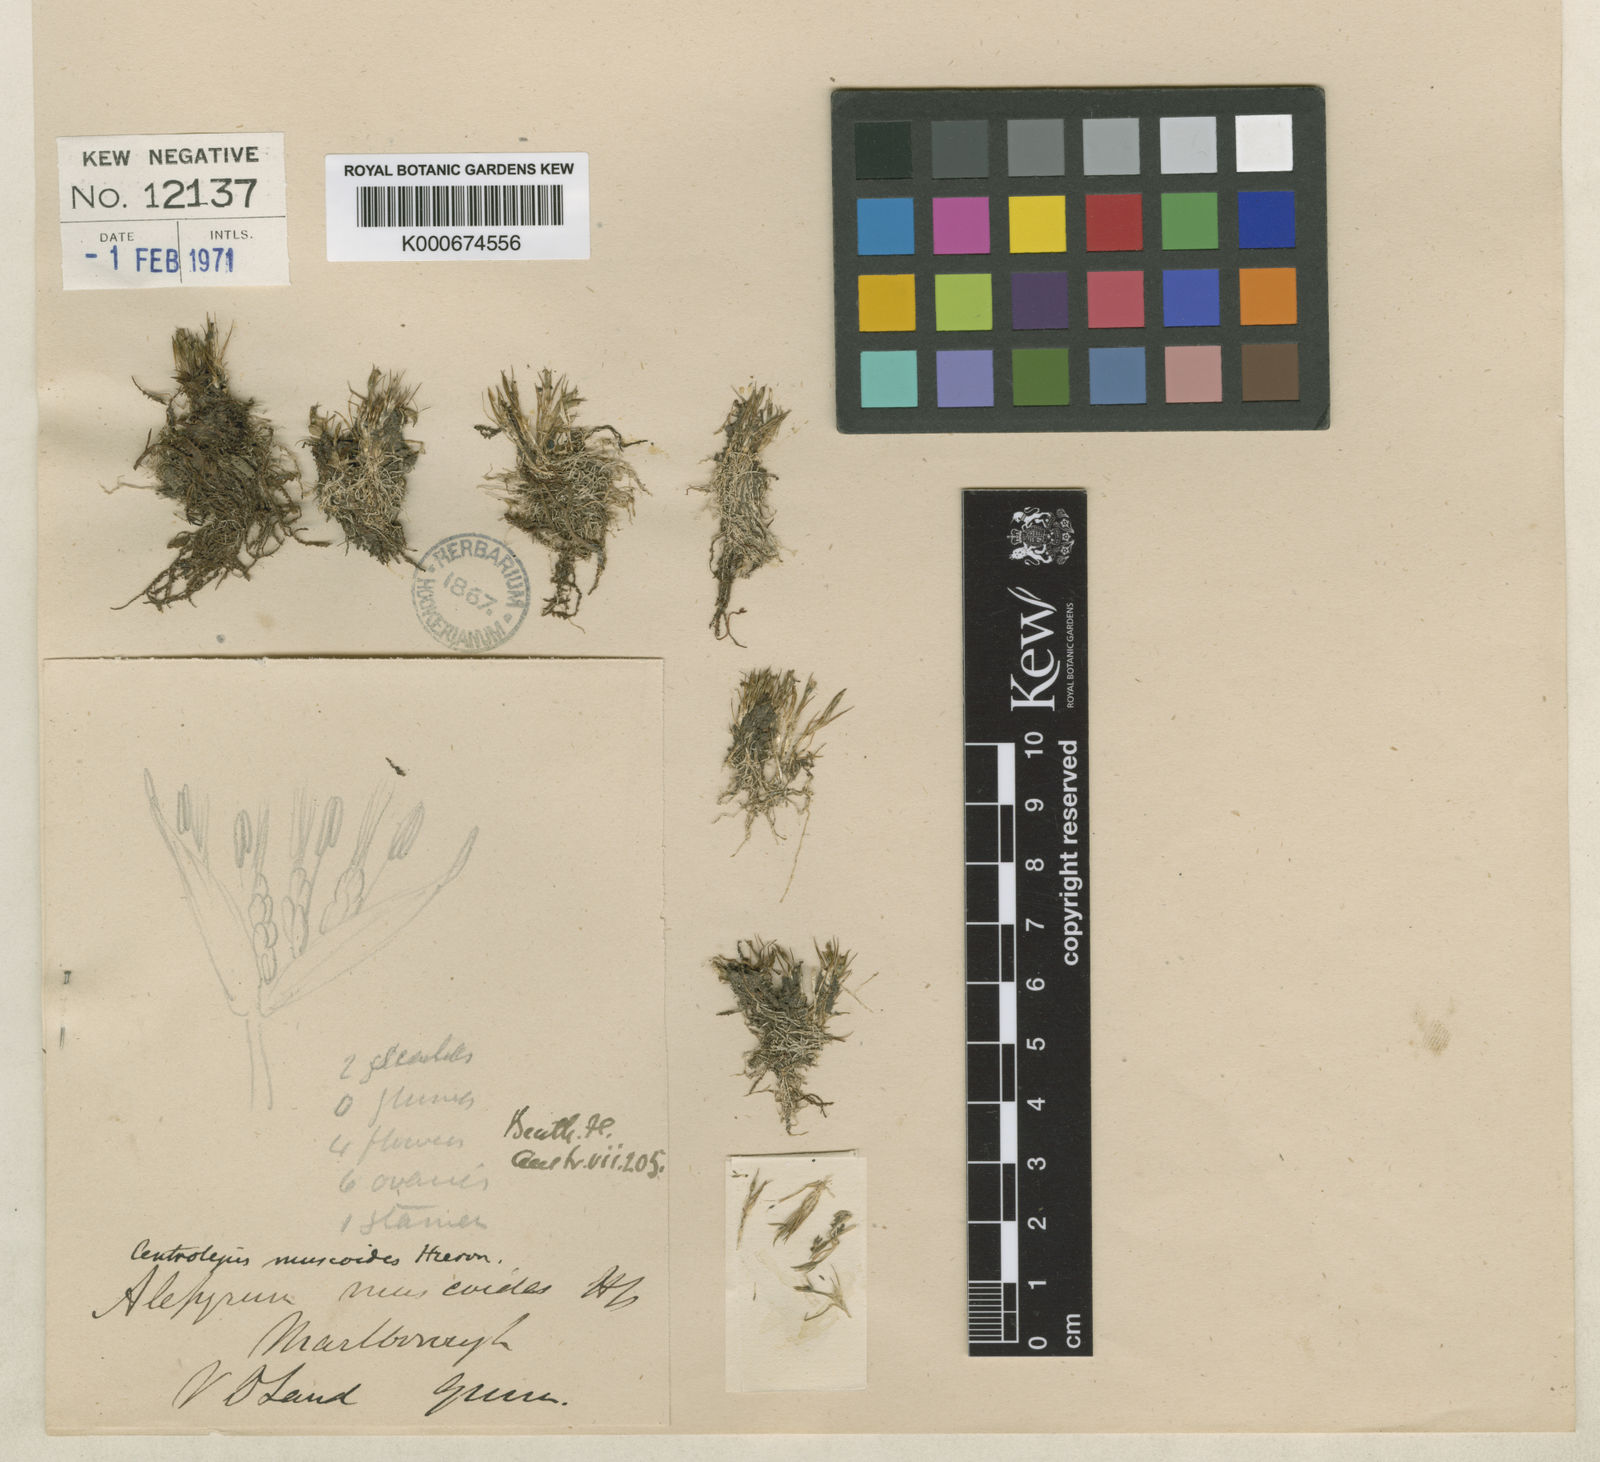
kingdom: Plantae
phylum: Tracheophyta
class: Liliopsida
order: Poales
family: Restionaceae
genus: Centrolepis
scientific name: Centrolepis muscoides
